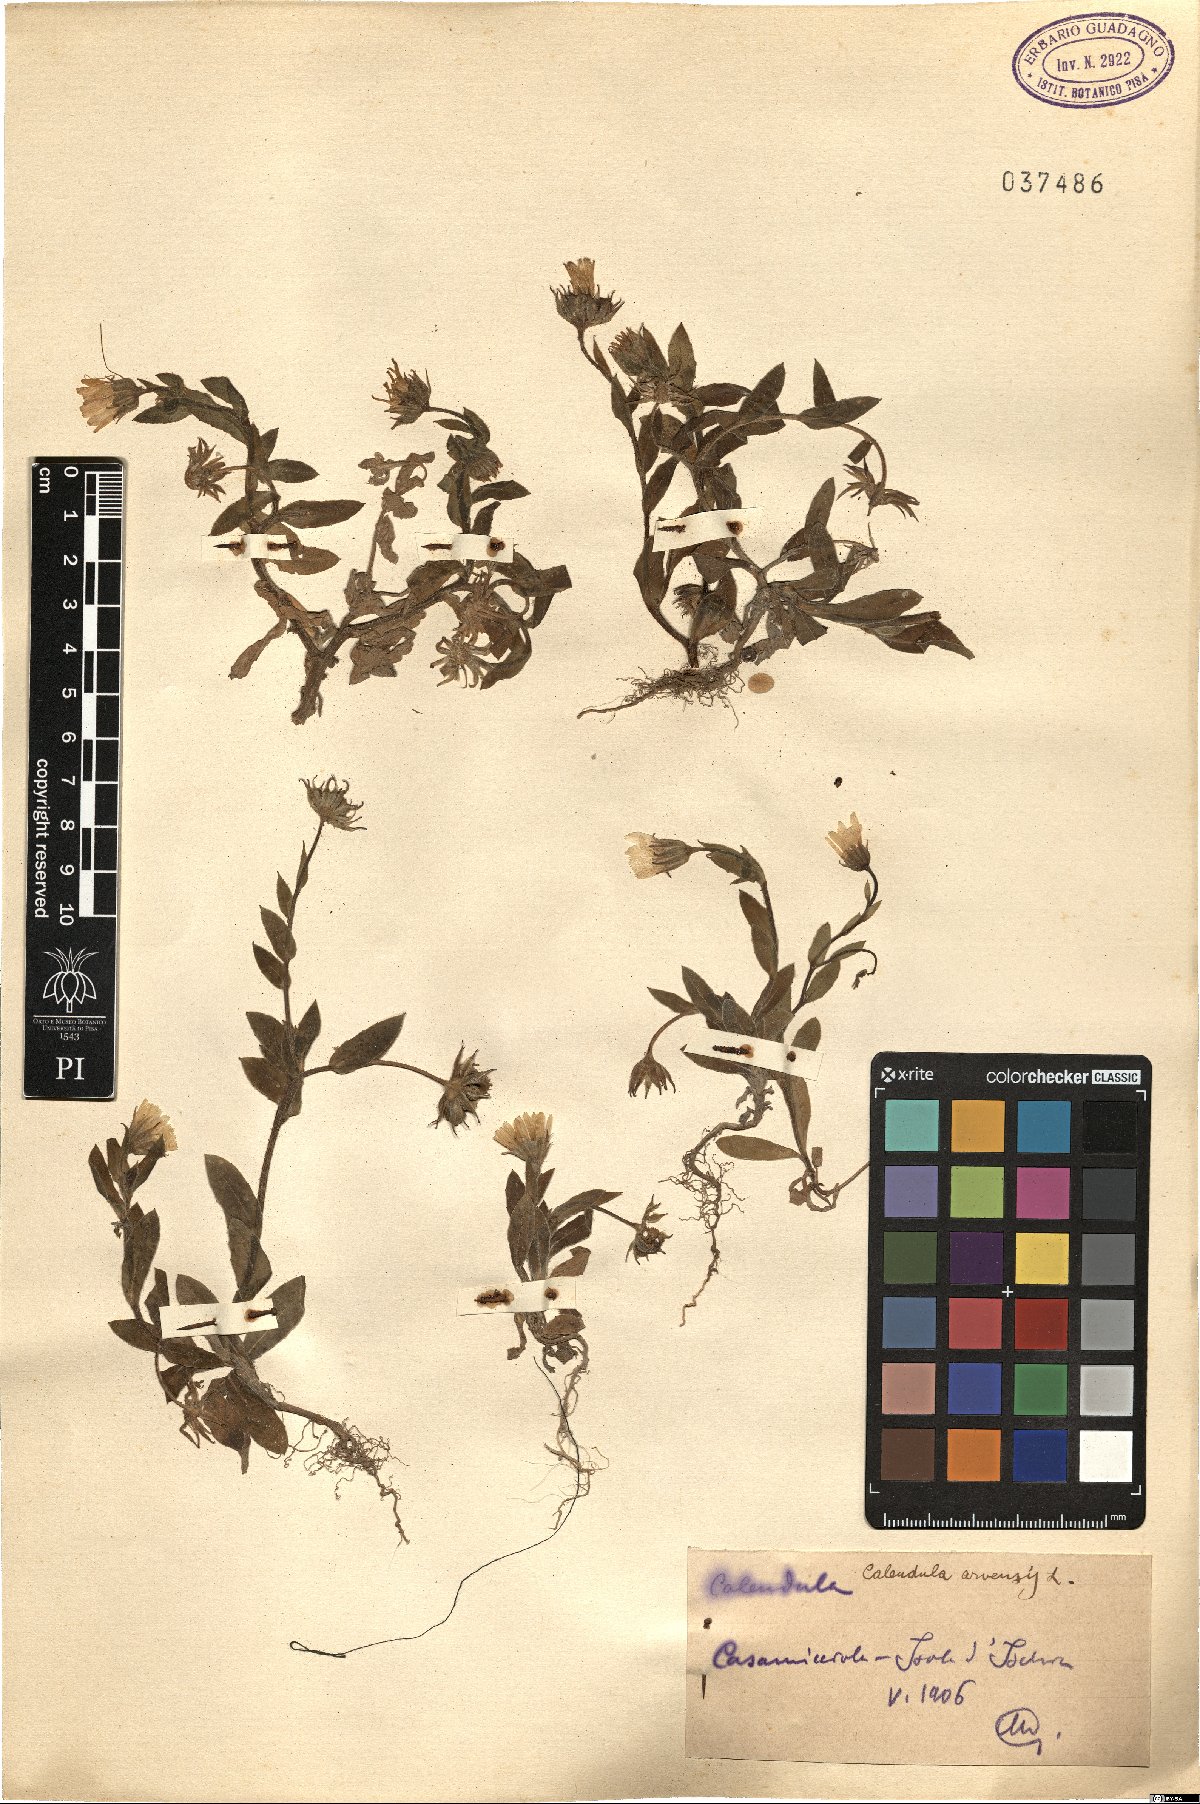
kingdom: Plantae
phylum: Tracheophyta
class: Magnoliopsida
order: Asterales
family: Asteraceae
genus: Calendula
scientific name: Calendula arvensis
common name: Field marigold
